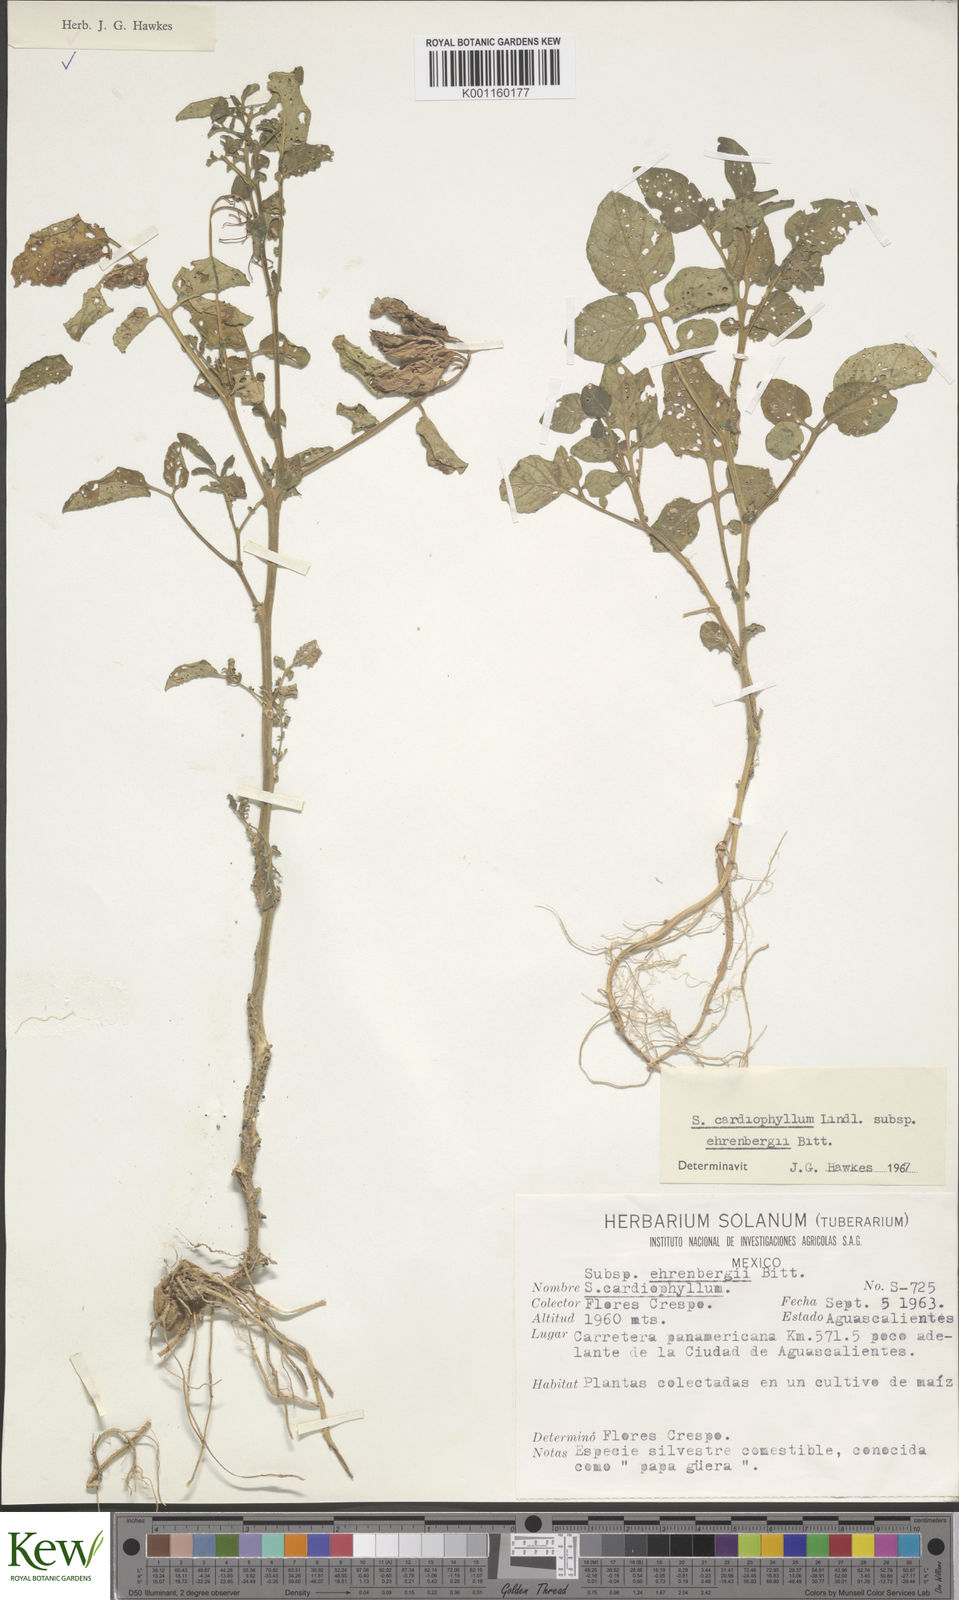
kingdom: Plantae
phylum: Tracheophyta
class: Magnoliopsida
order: Solanales
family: Solanaceae
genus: Solanum
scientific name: Solanum cardiophyllum
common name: Heartleaf horsenettle
